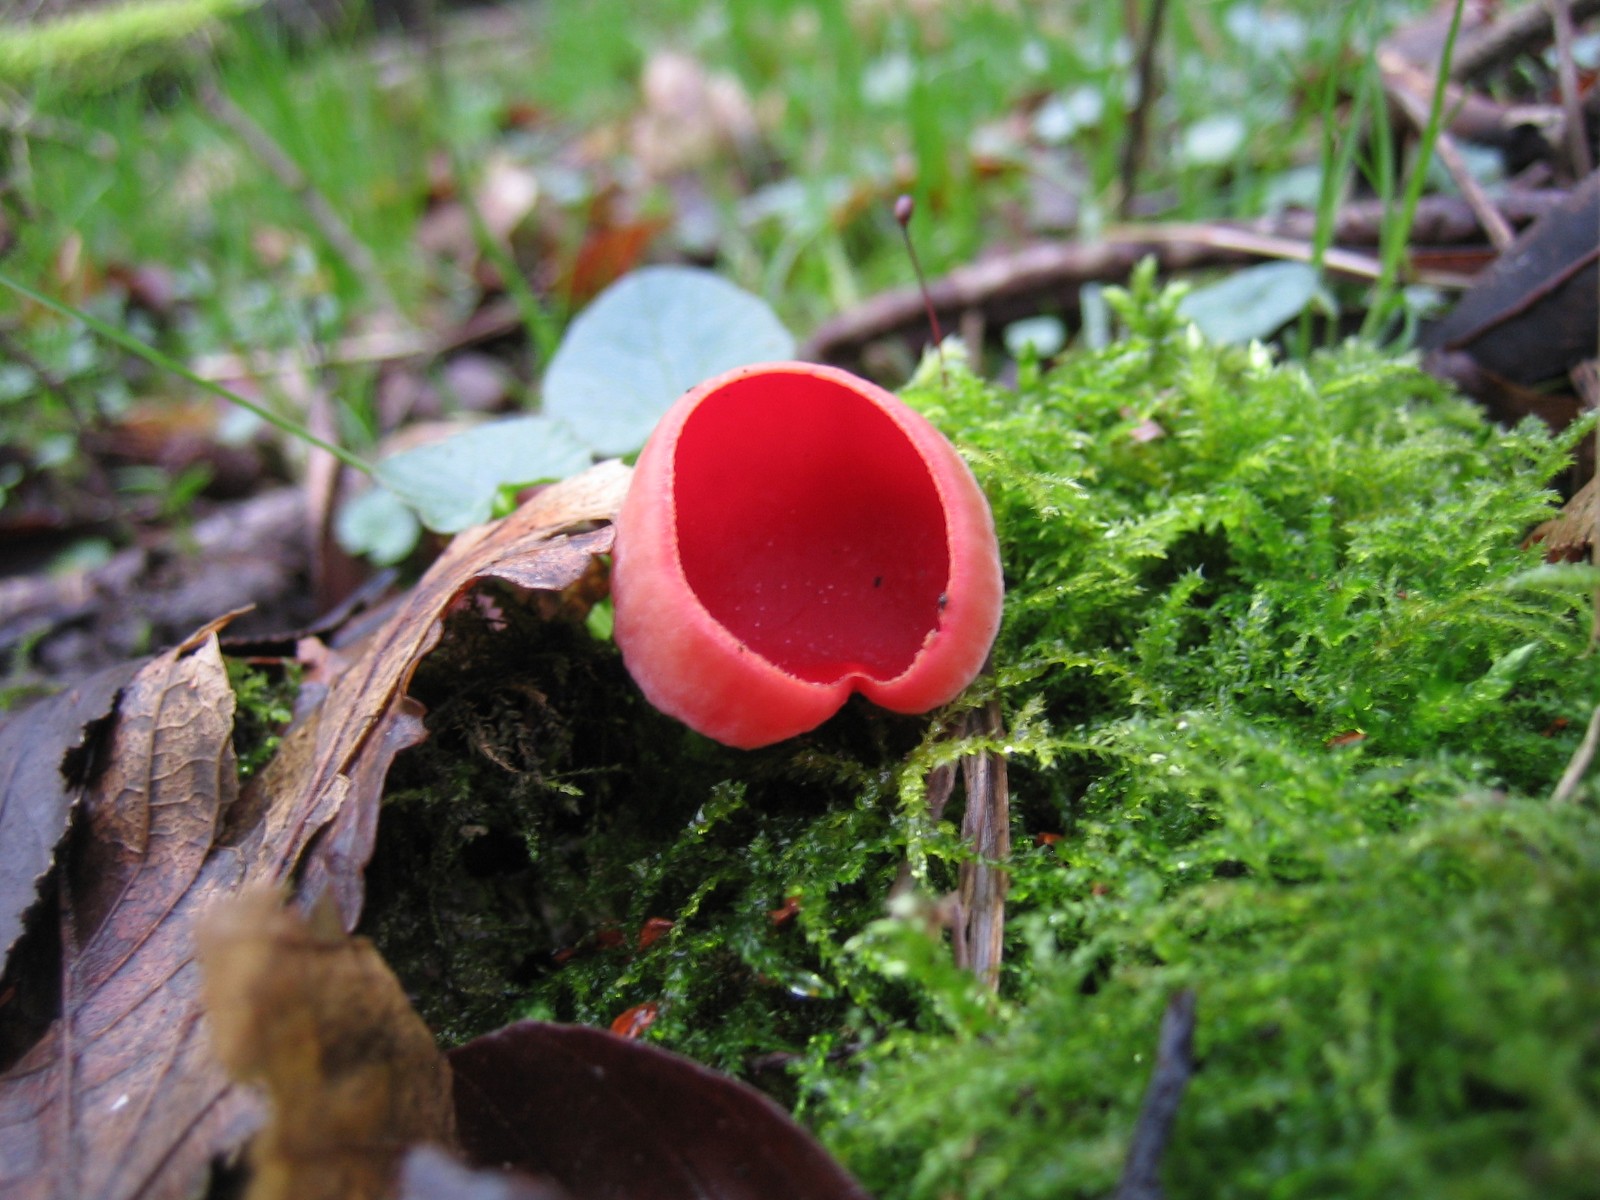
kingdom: Fungi
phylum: Ascomycota
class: Pezizomycetes
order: Pezizales
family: Sarcoscyphaceae
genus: Sarcoscypha
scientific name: Sarcoscypha austriaca
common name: krølhåret pragtbæger
